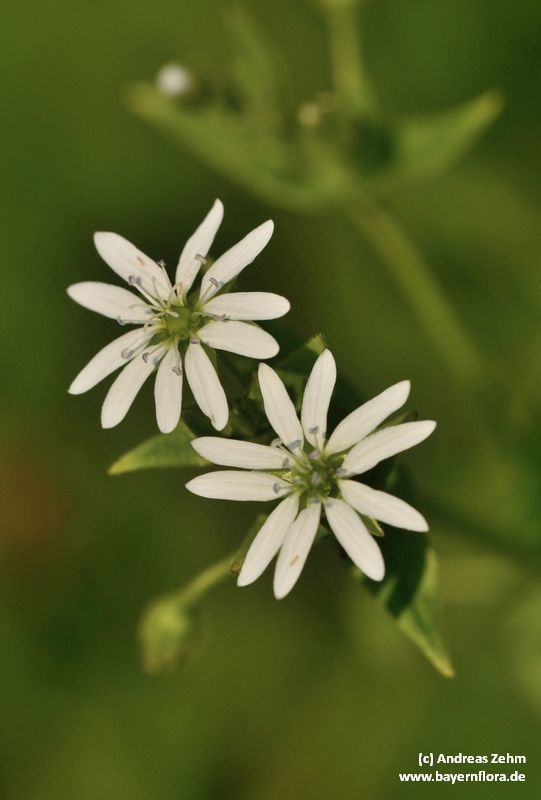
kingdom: Plantae
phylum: Tracheophyta
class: Magnoliopsida
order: Caryophyllales
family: Caryophyllaceae
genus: Stellaria
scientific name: Stellaria nemorum
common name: Wood stitchwort
